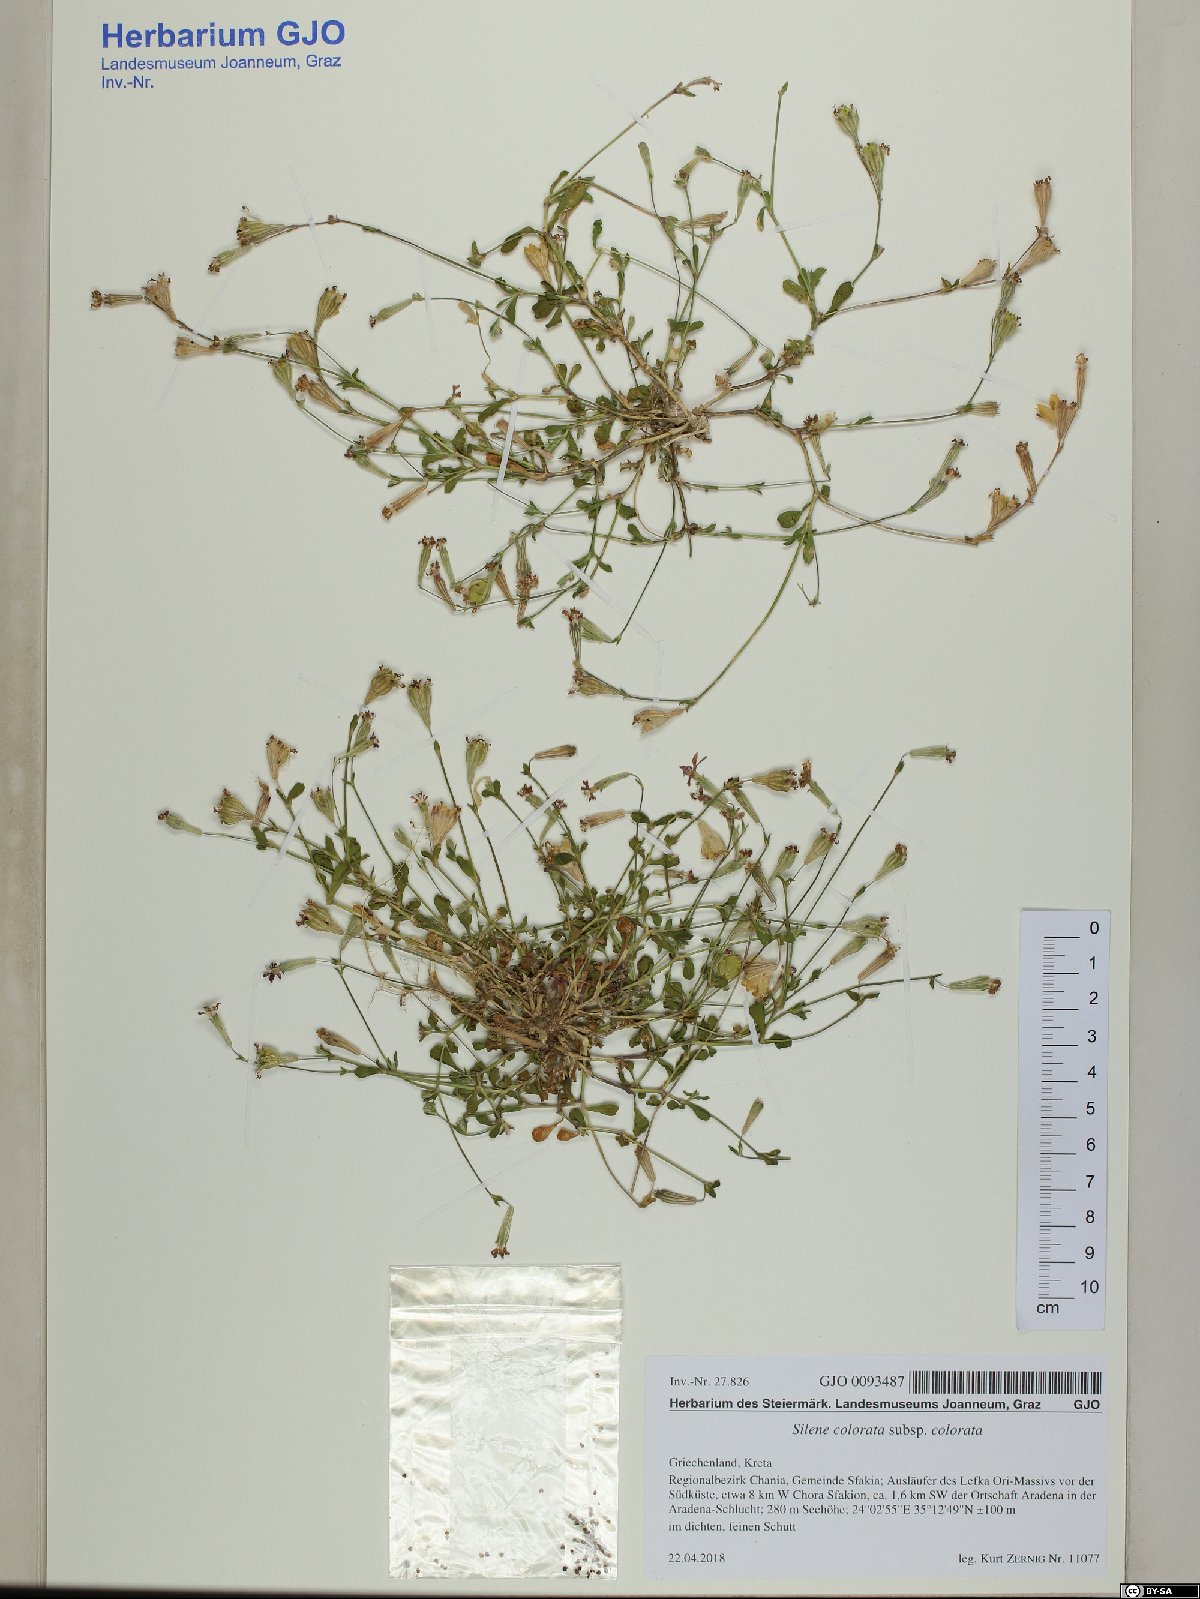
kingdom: Plantae
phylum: Tracheophyta
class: Magnoliopsida
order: Caryophyllales
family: Caryophyllaceae
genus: Silene
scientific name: Silene colorata
